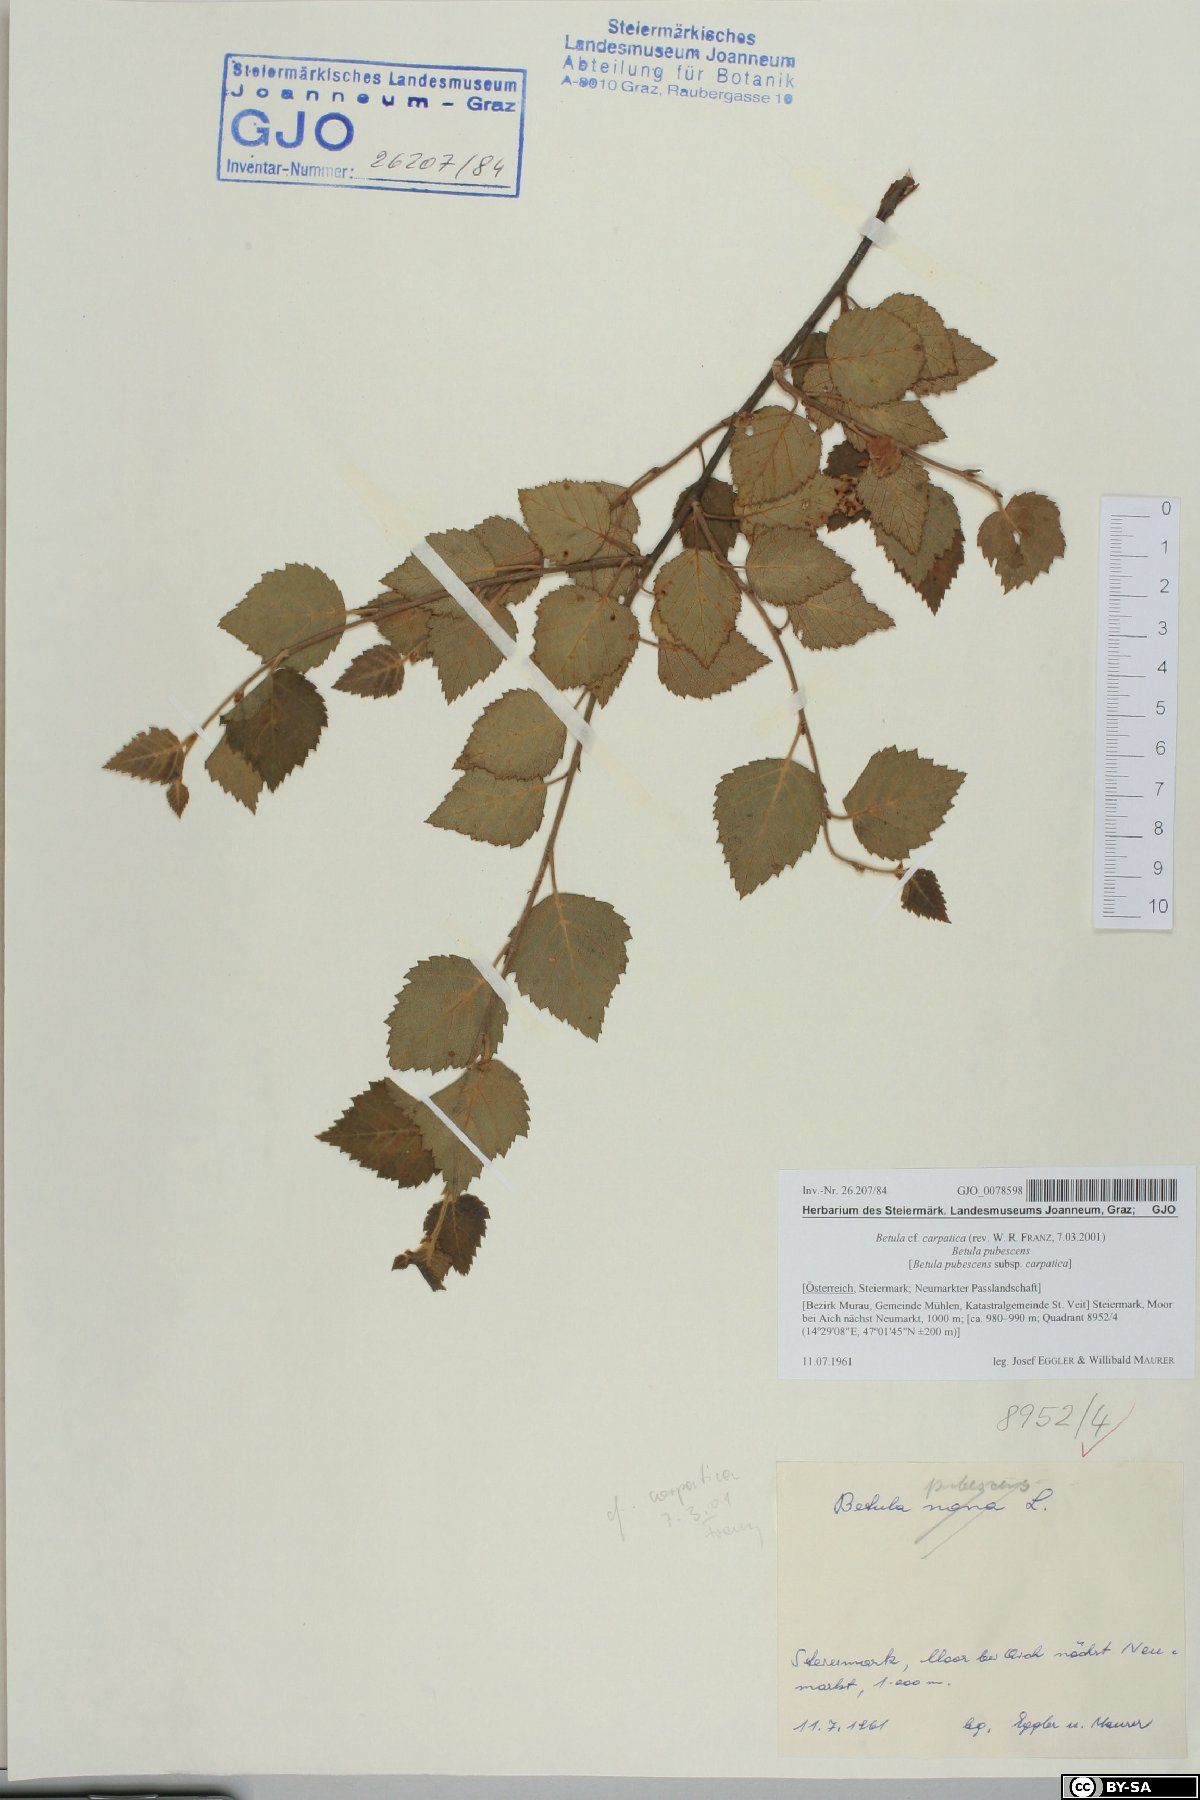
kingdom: Plantae
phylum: Tracheophyta
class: Magnoliopsida
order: Fagales
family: Betulaceae
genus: Betula
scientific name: Betula pubescens
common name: Downy birch
